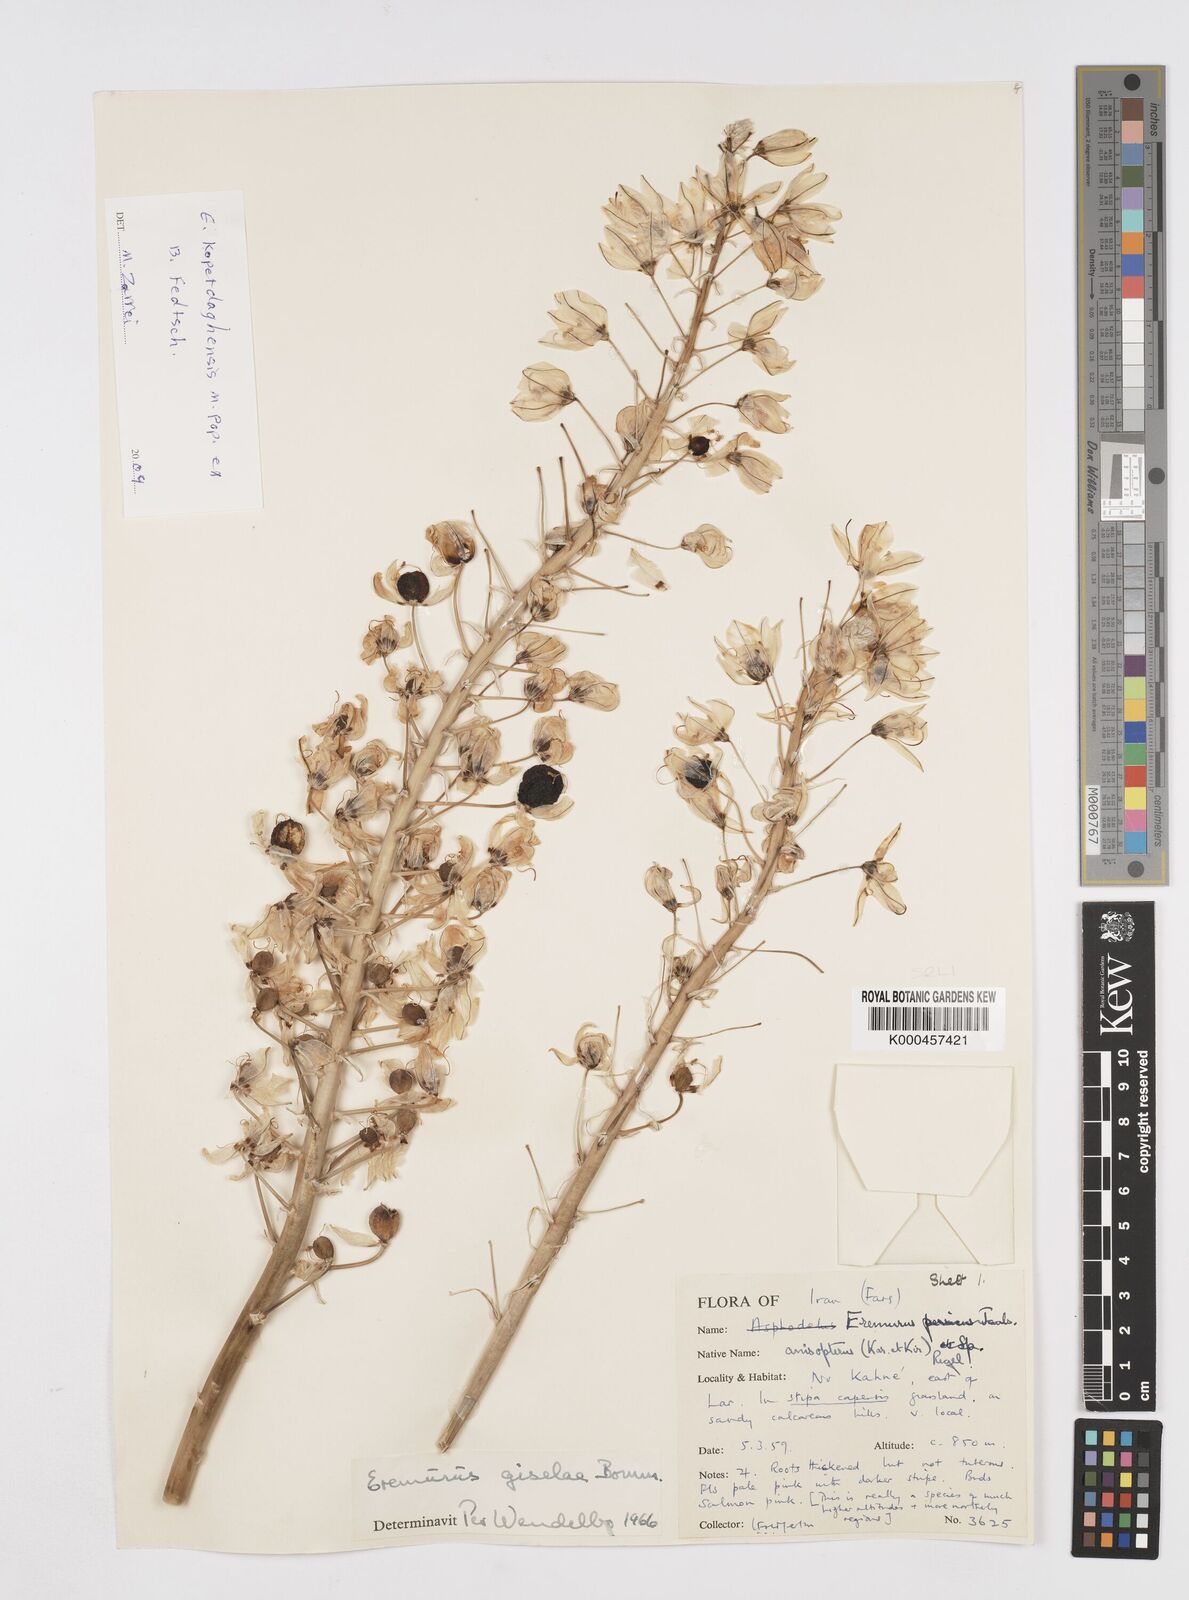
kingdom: Plantae
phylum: Tracheophyta
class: Liliopsida
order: Asparagales
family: Asphodelaceae
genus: Eremurus
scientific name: Eremurus kopet-daghensis
